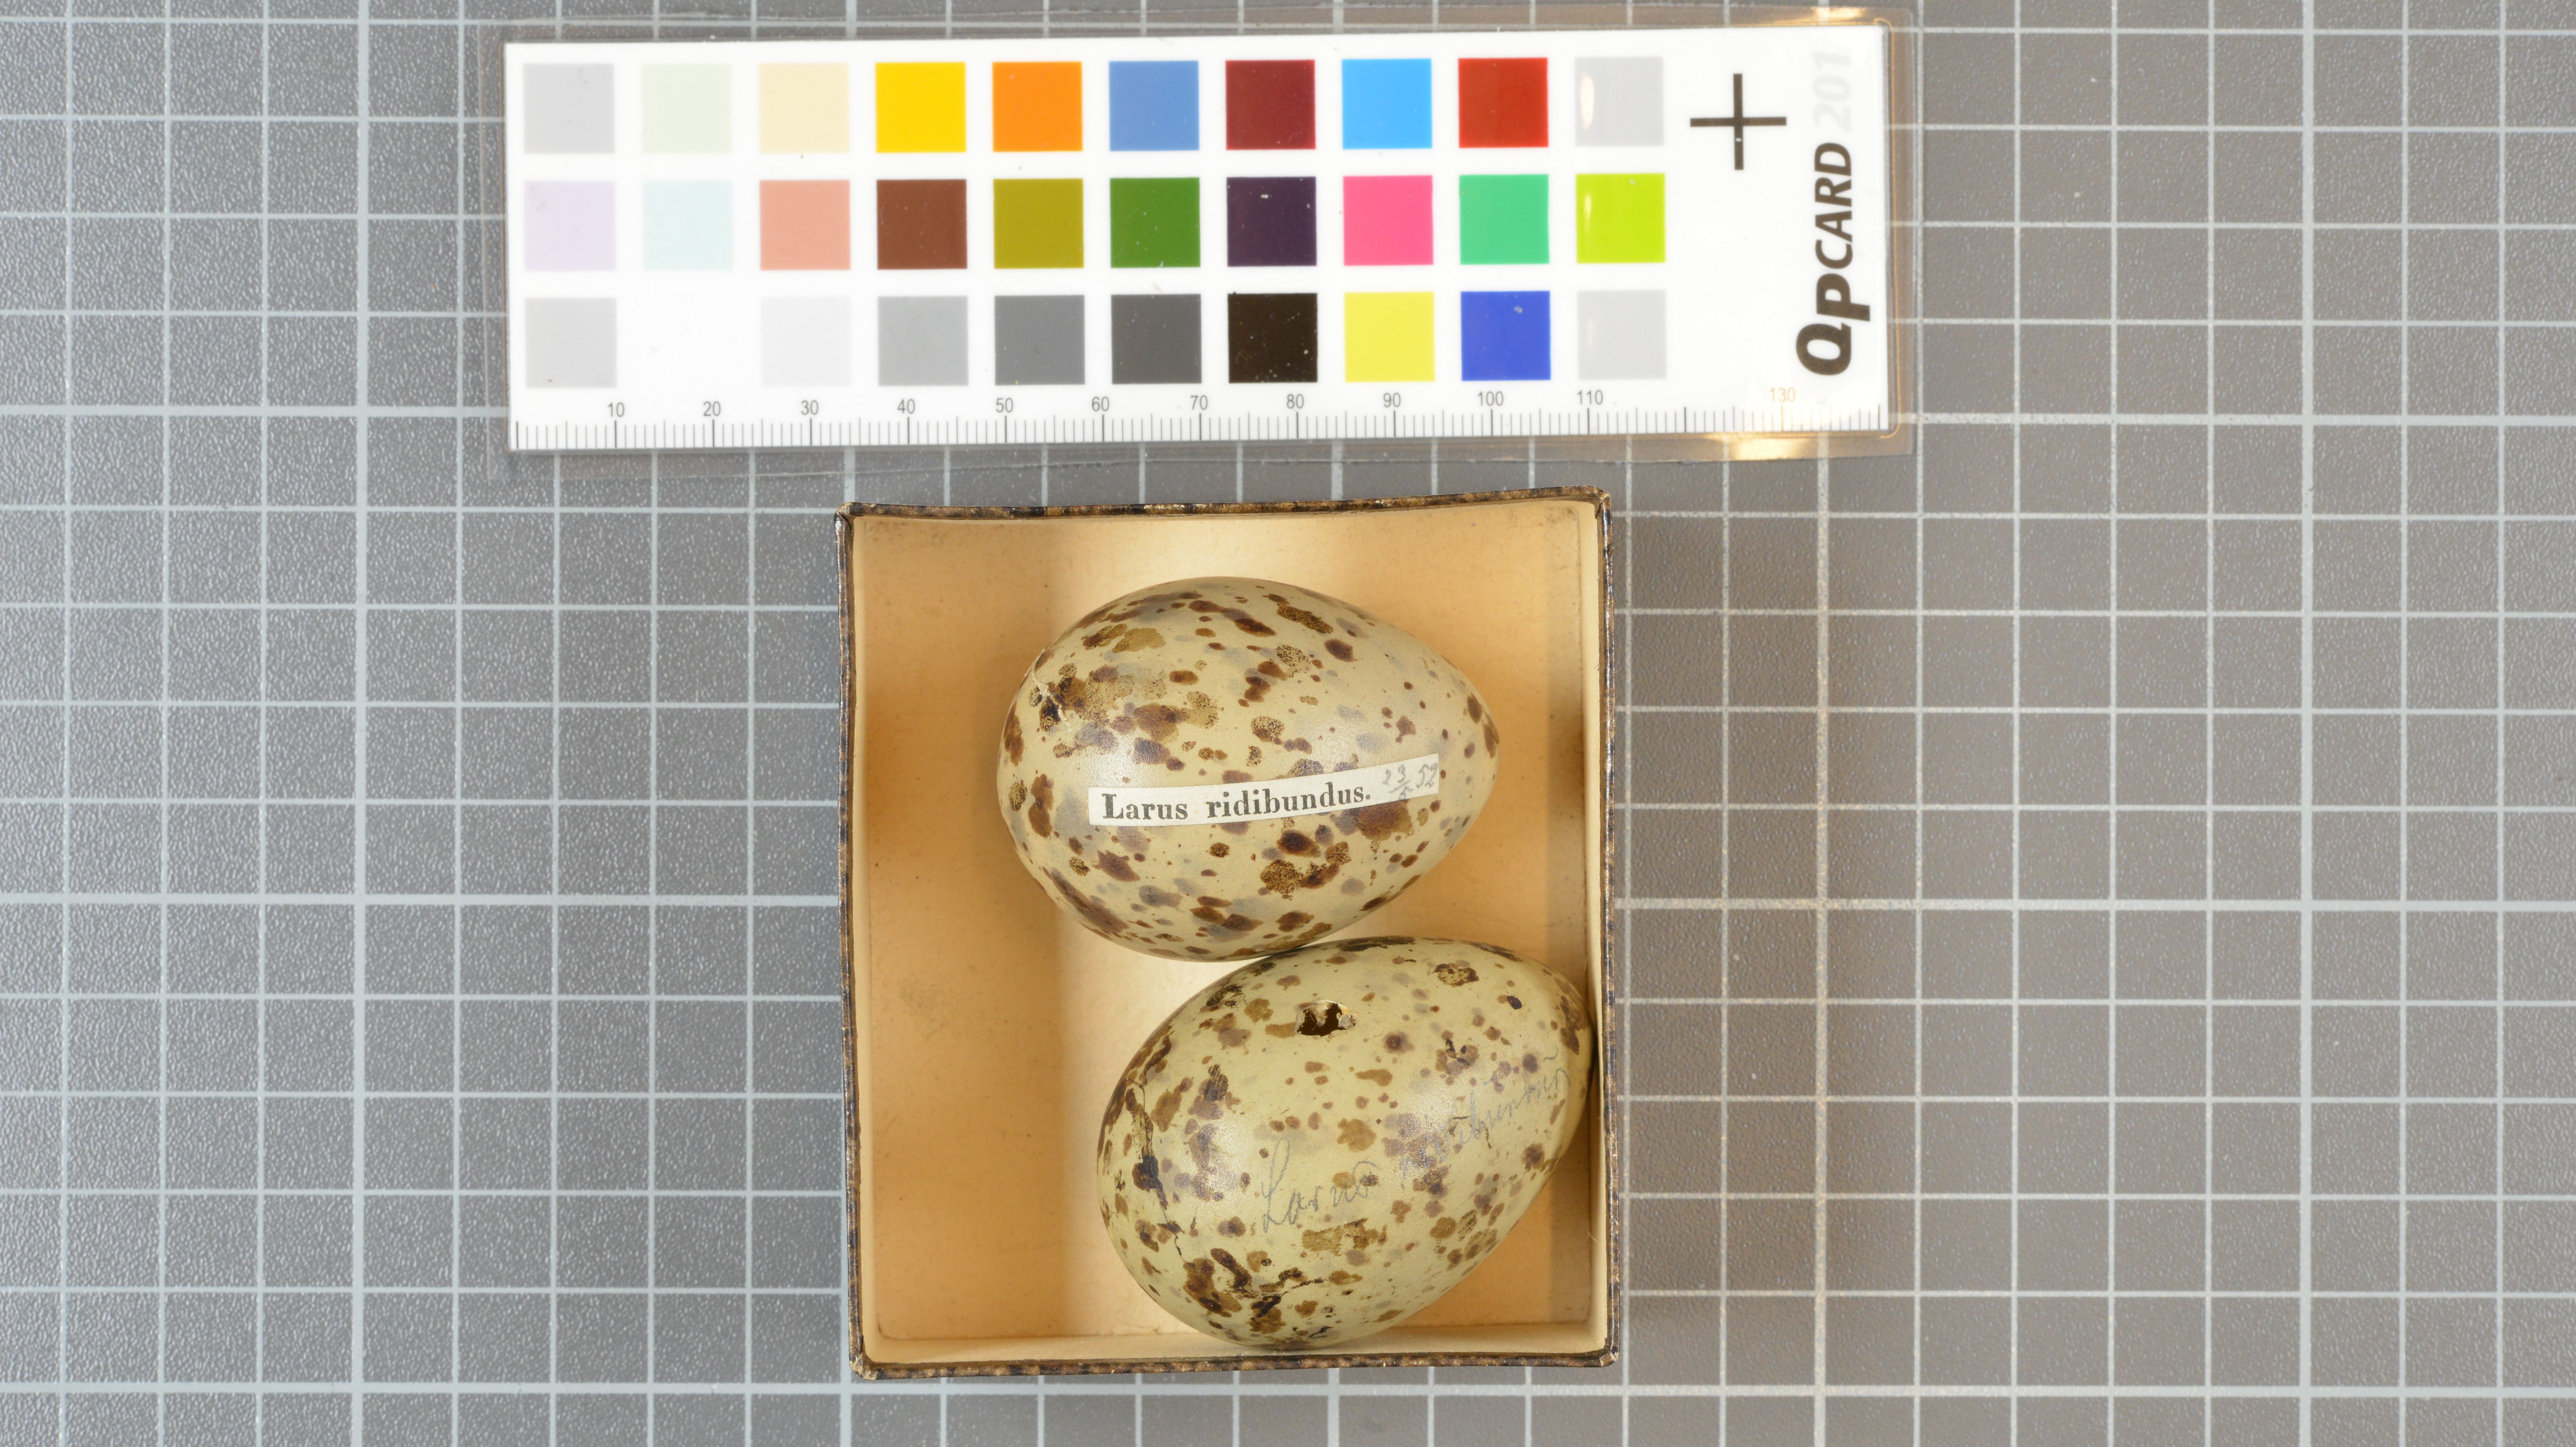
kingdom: Animalia
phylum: Chordata
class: Aves
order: Charadriiformes
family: Laridae
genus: Chroicocephalus
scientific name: Chroicocephalus ridibundus
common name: Black-headed gull
